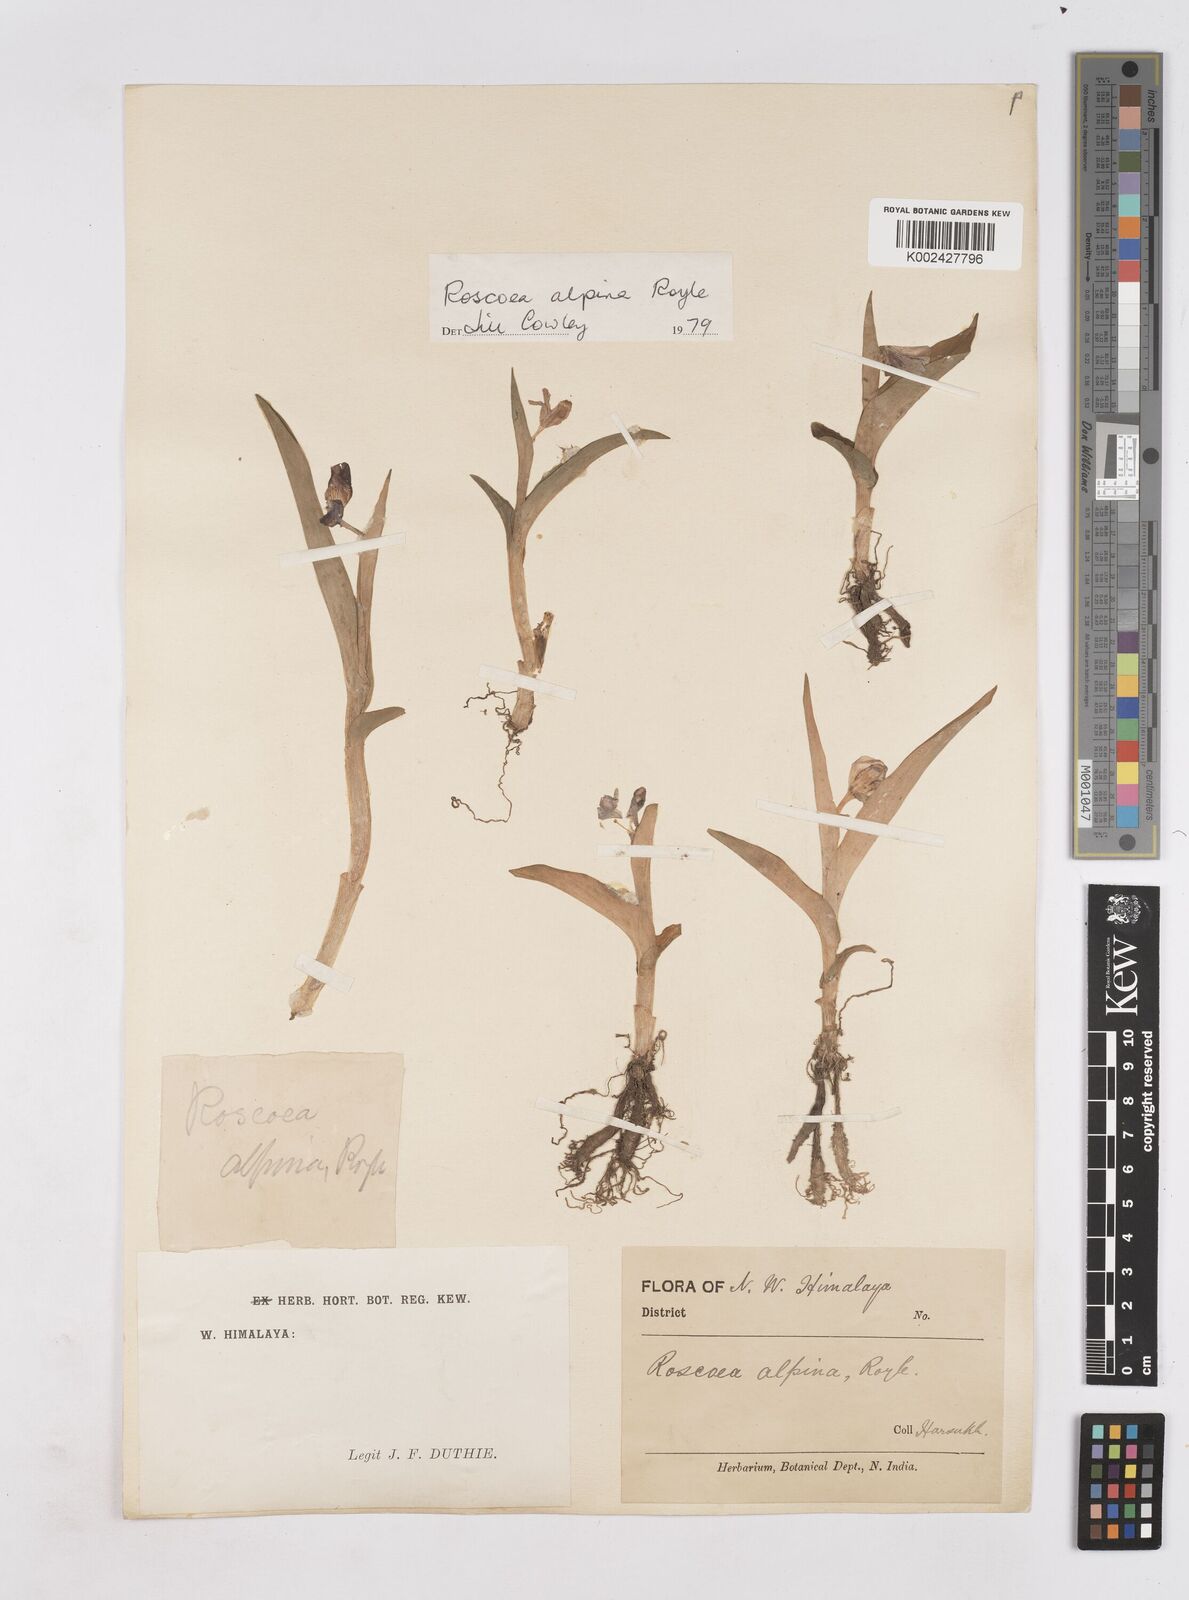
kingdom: Plantae
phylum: Tracheophyta
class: Liliopsida
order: Zingiberales
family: Zingiberaceae
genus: Roscoea
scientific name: Roscoea alpina
